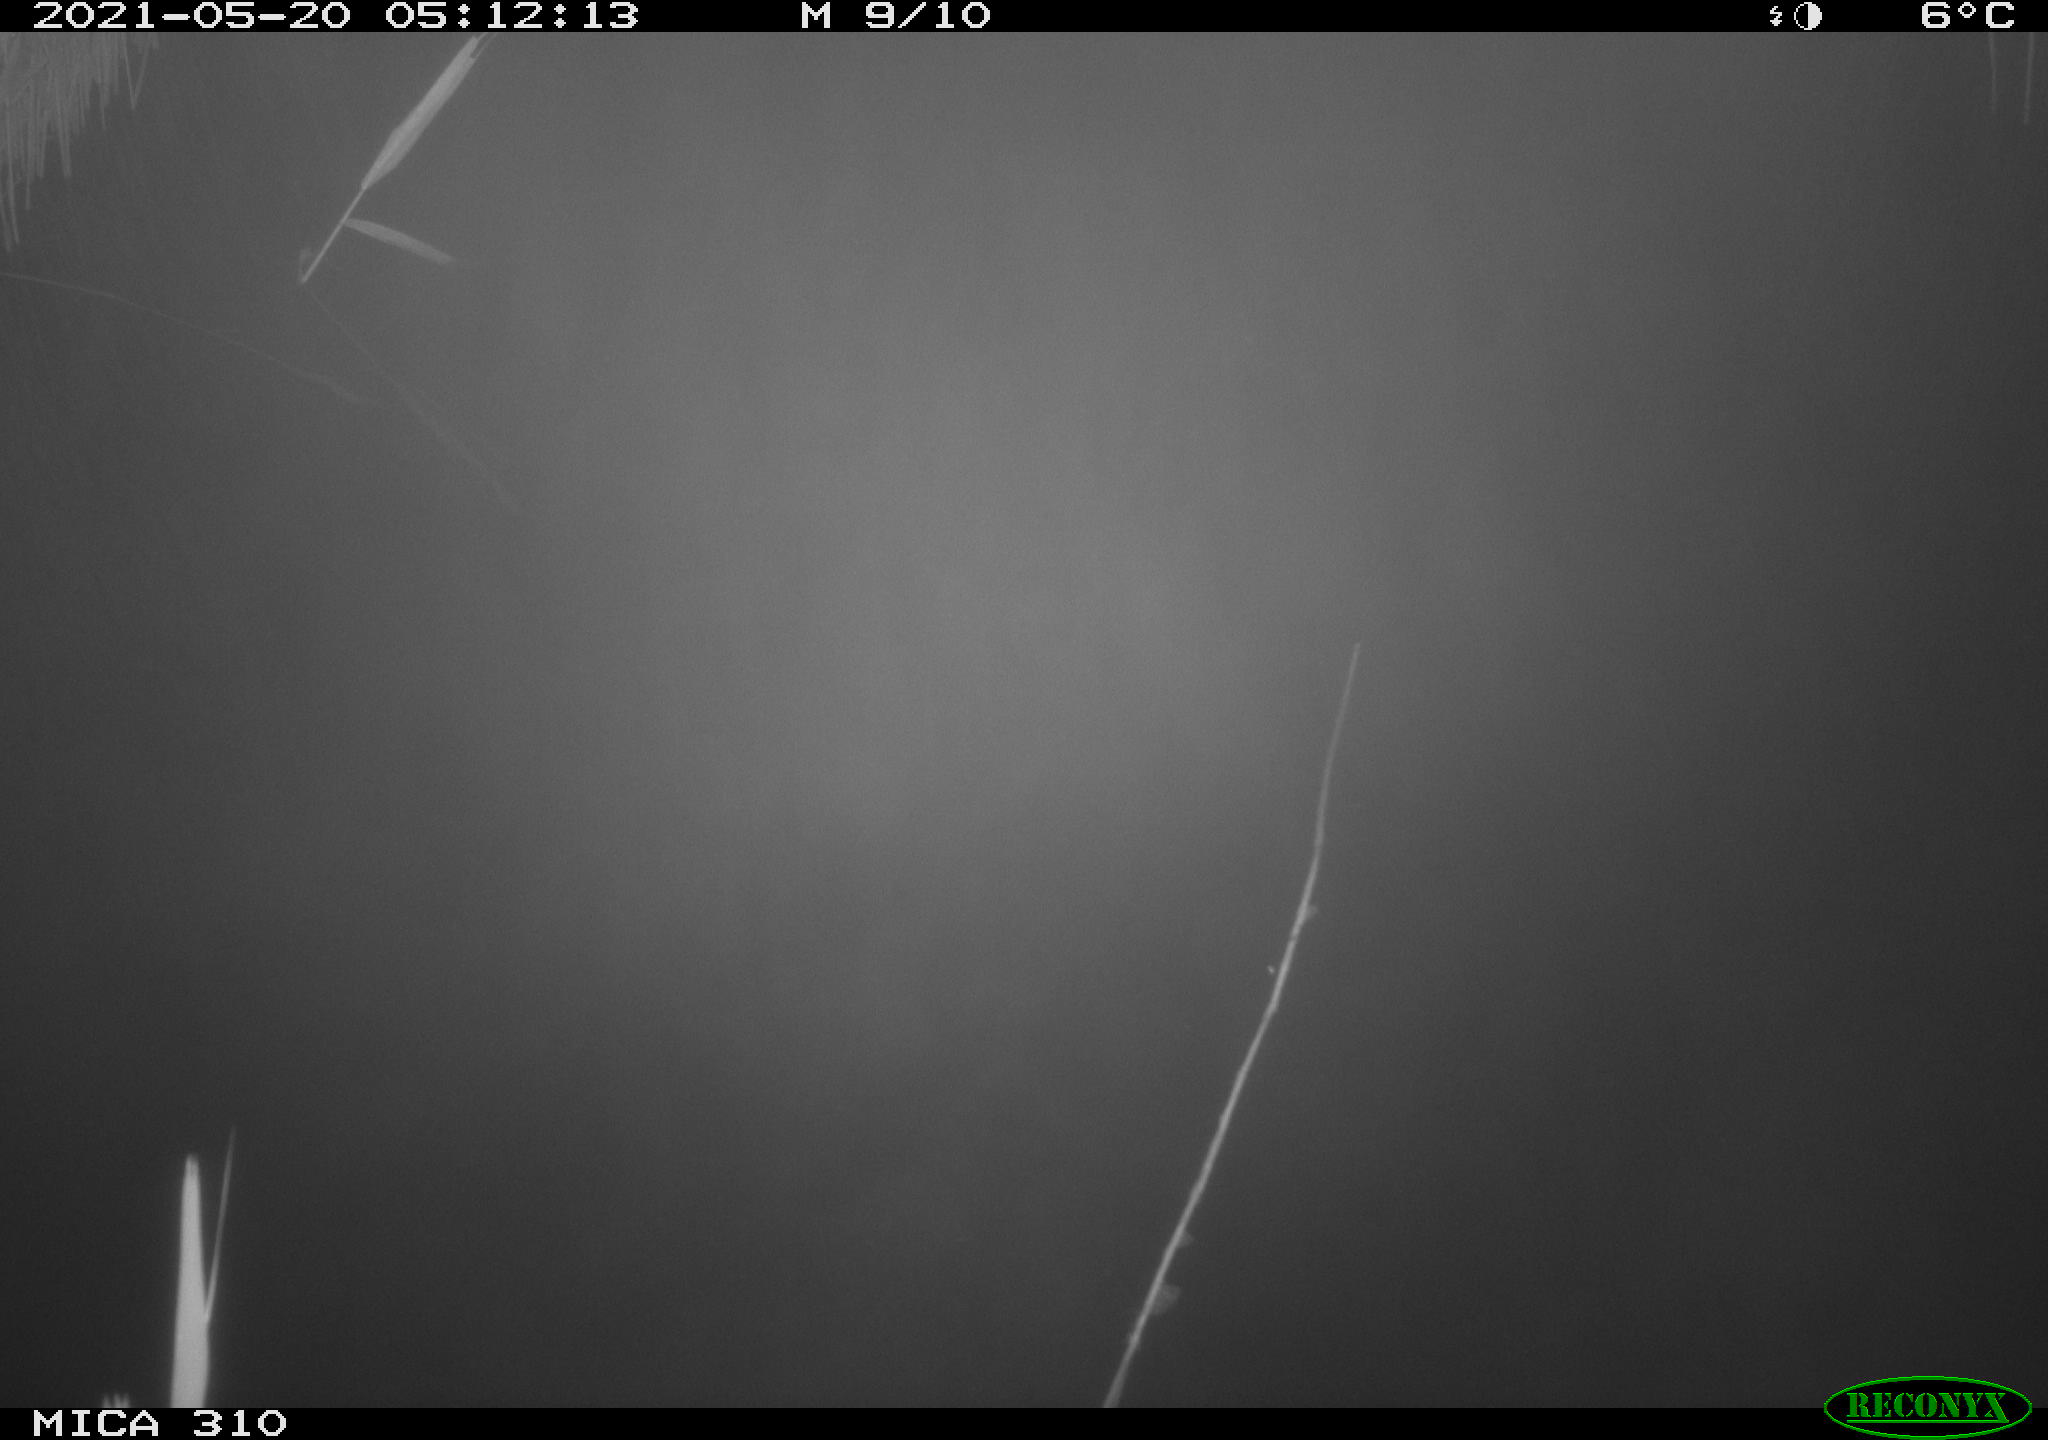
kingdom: Animalia
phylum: Chordata
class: Aves
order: Anseriformes
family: Anatidae
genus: Anas
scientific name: Anas platyrhynchos
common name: Mallard
